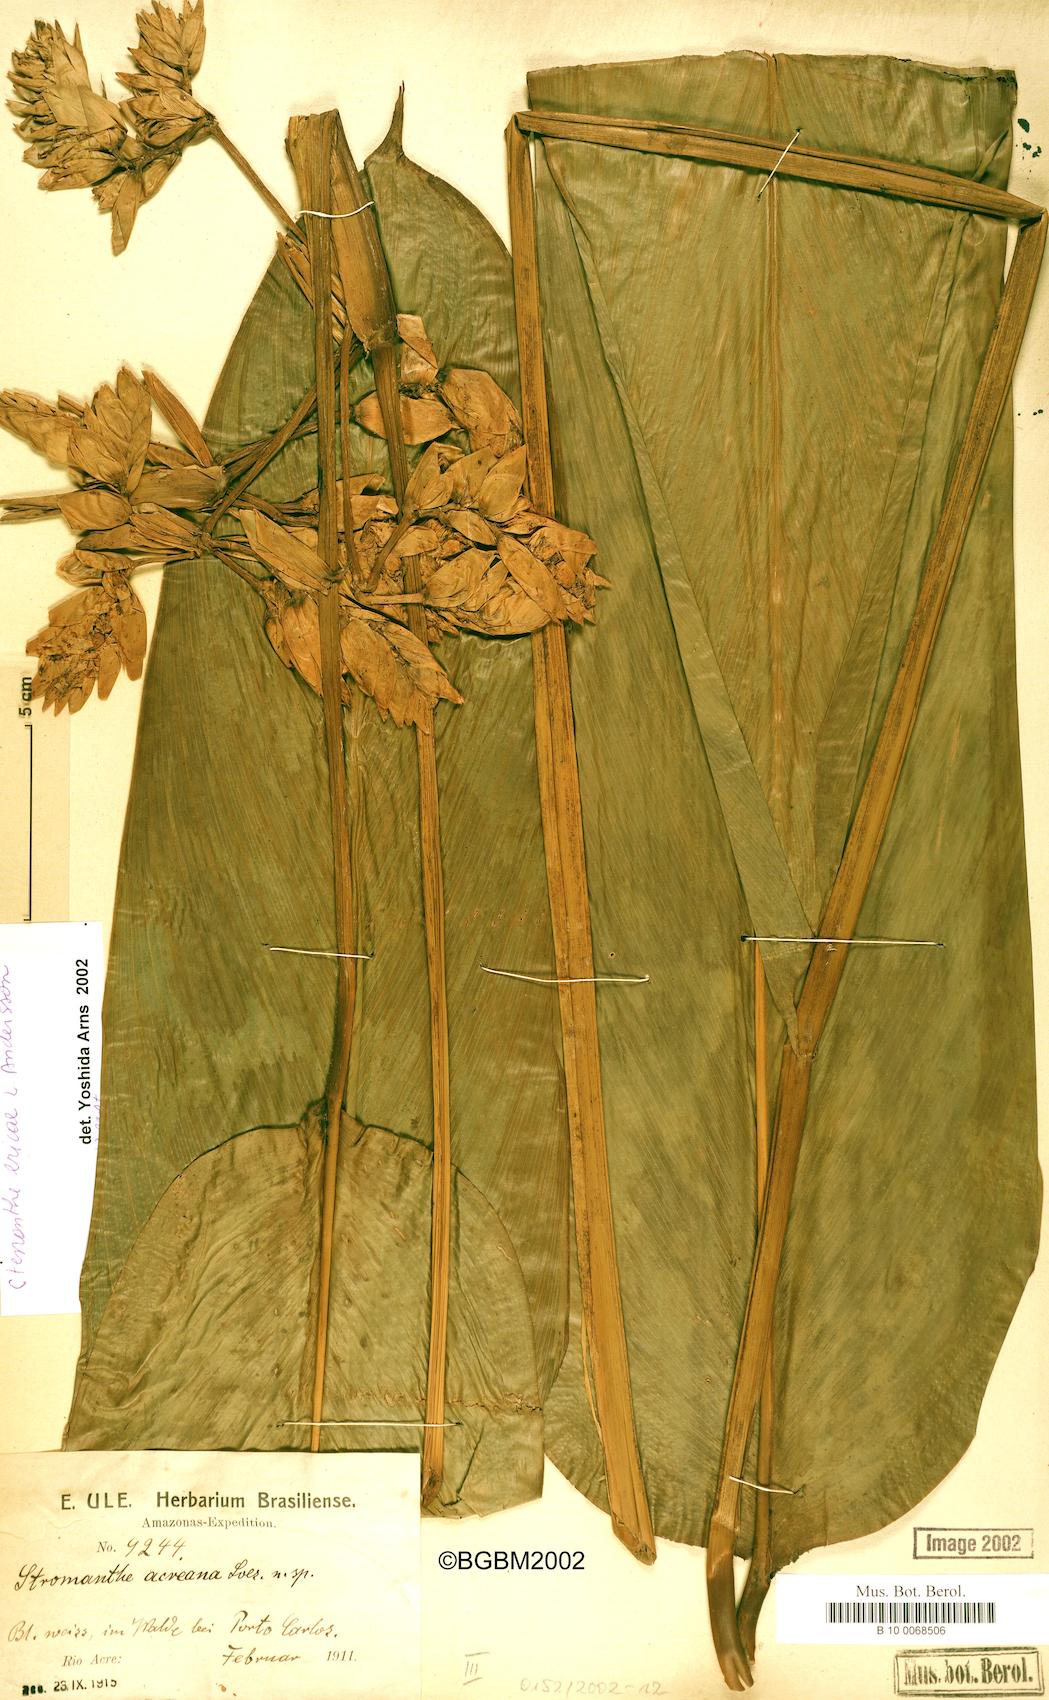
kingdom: Plantae
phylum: Tracheophyta
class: Liliopsida
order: Zingiberales
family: Marantaceae
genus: Ctenanthe
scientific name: Ctenanthe ericae
